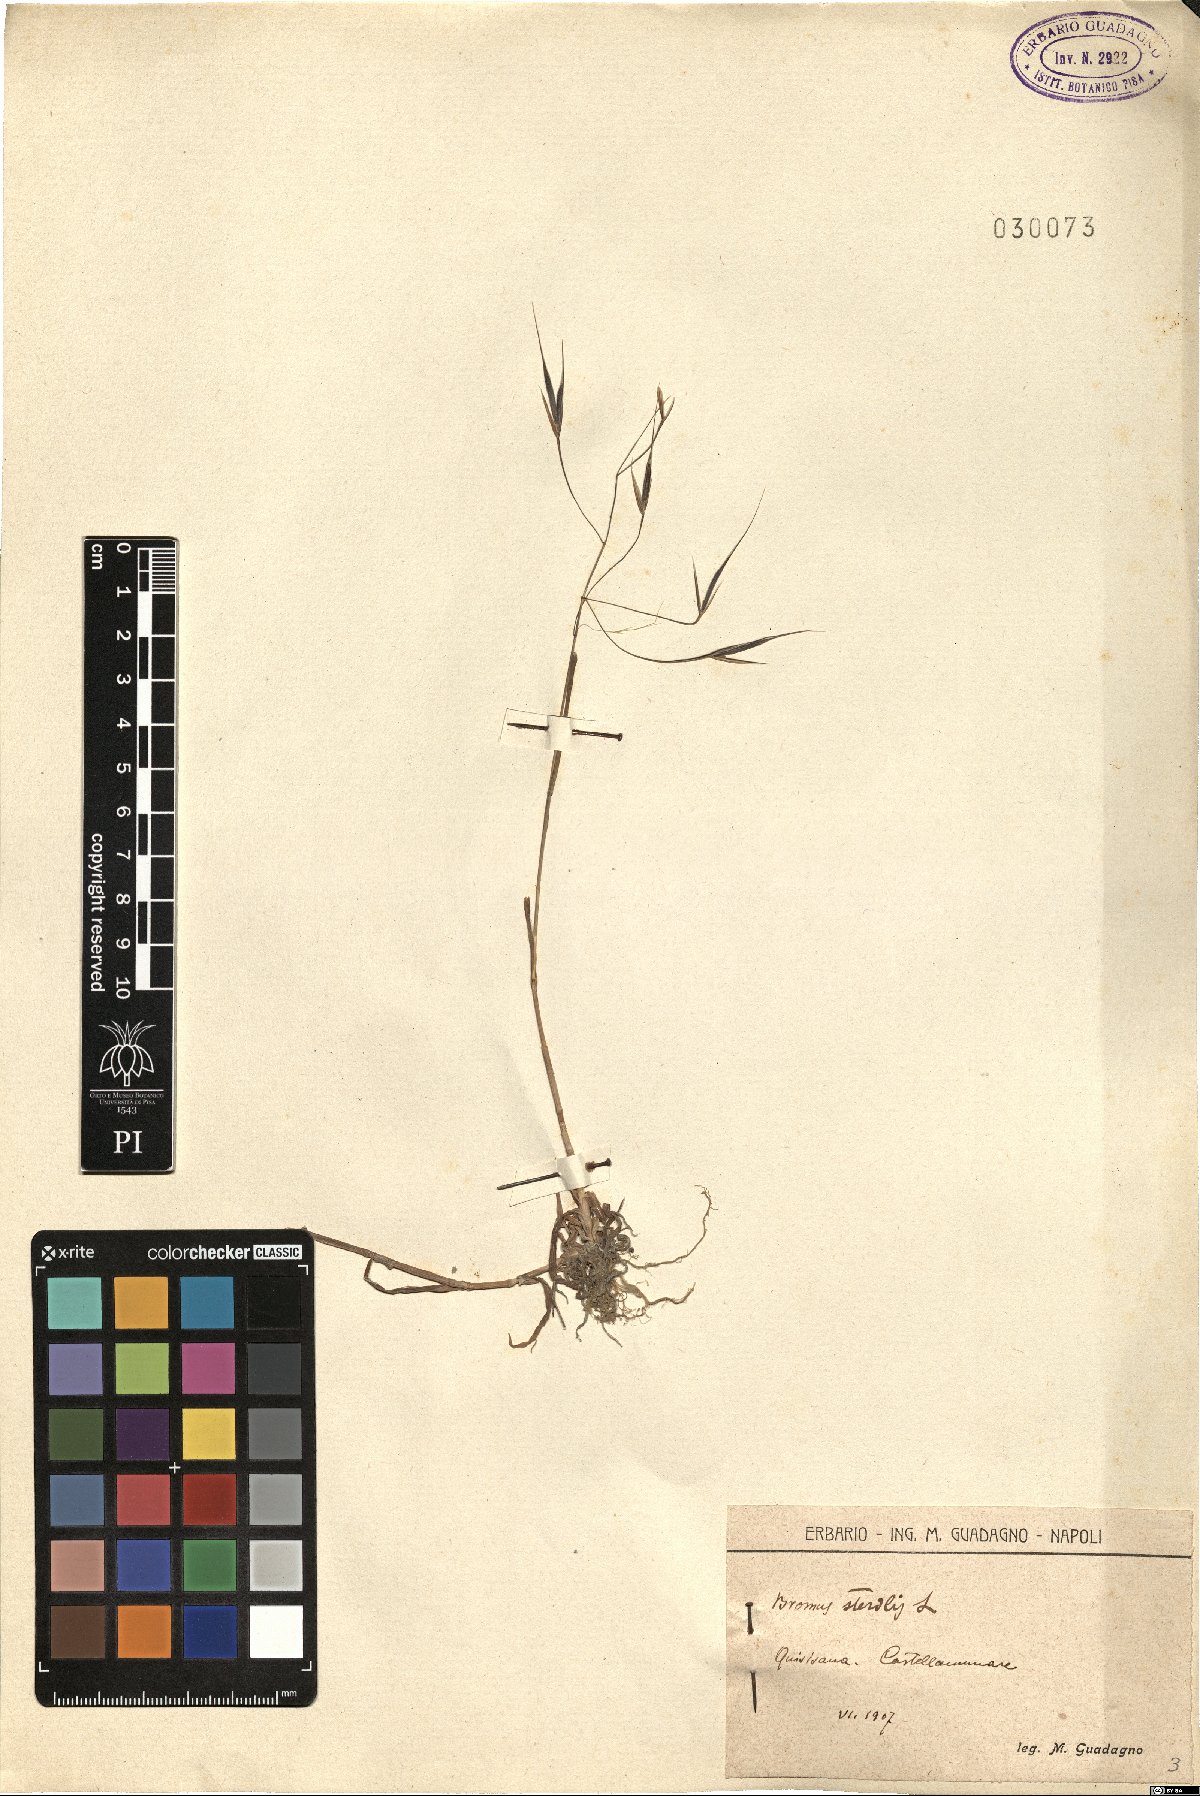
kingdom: Plantae
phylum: Tracheophyta
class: Liliopsida
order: Poales
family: Poaceae
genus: Bromus
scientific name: Bromus sterilis
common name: Poverty brome
